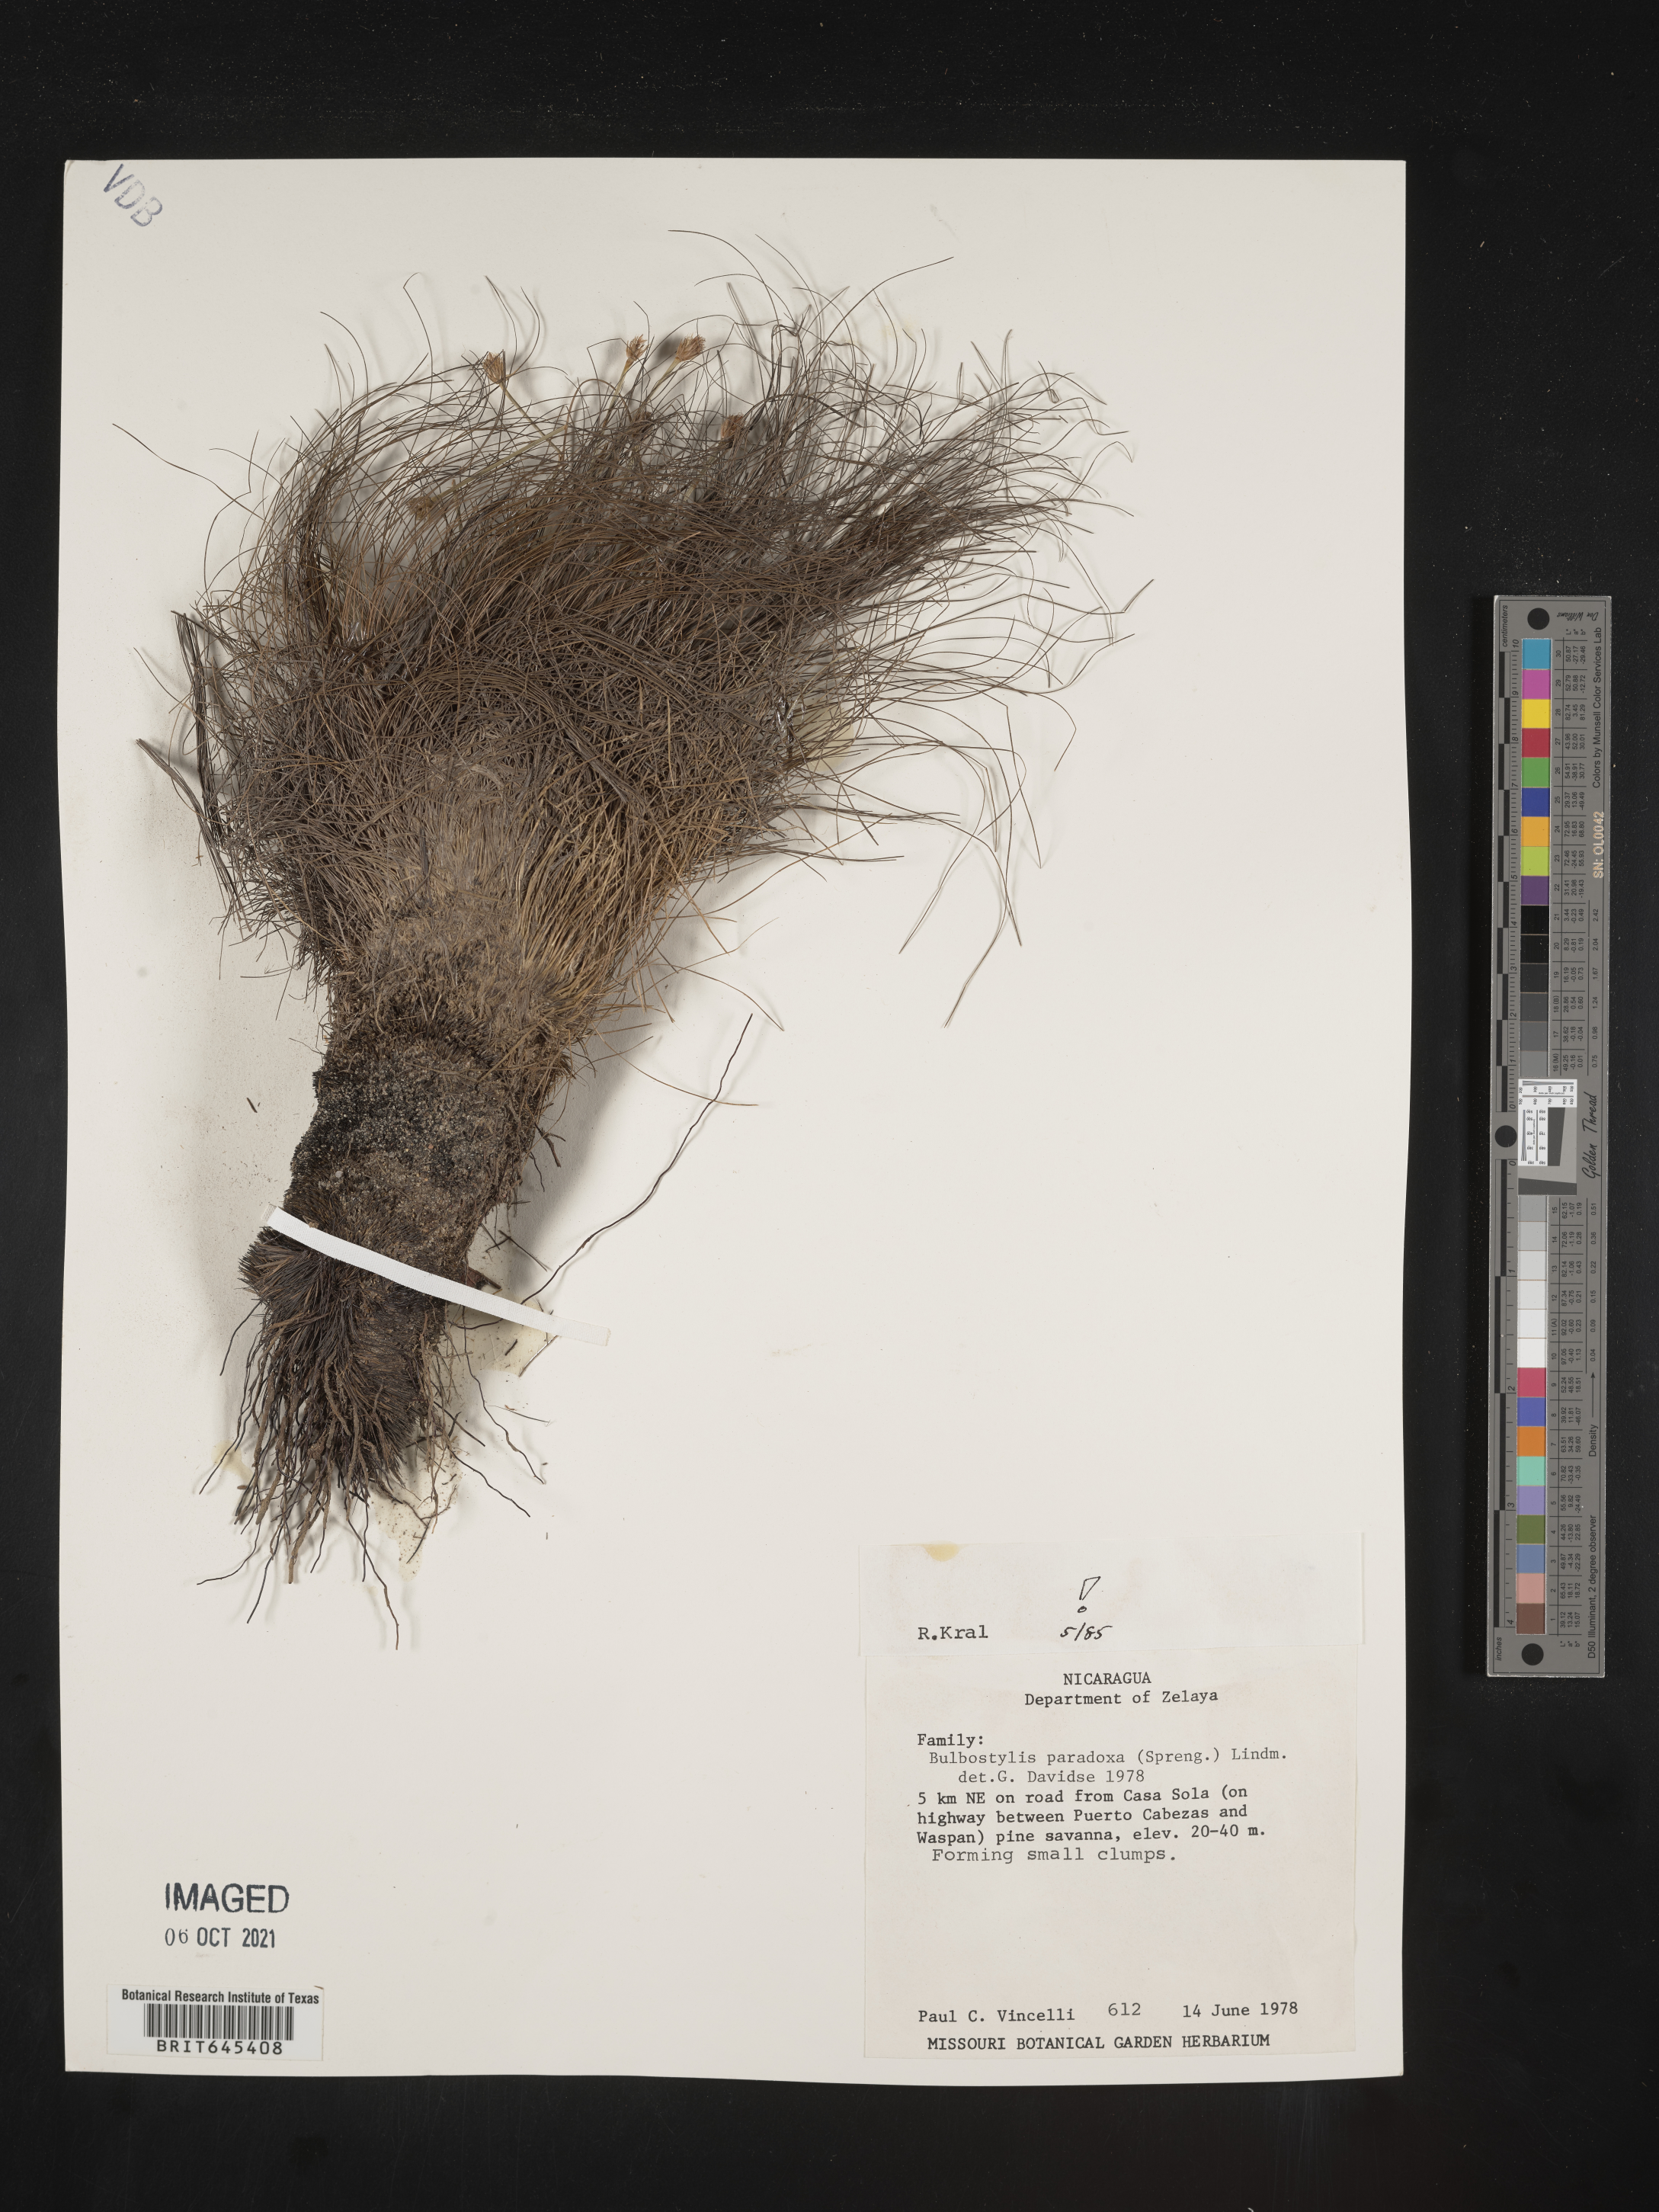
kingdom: Plantae
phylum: Tracheophyta
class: Liliopsida
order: Poales
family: Cyperaceae
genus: Bulbostylis
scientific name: Bulbostylis paradoxa
